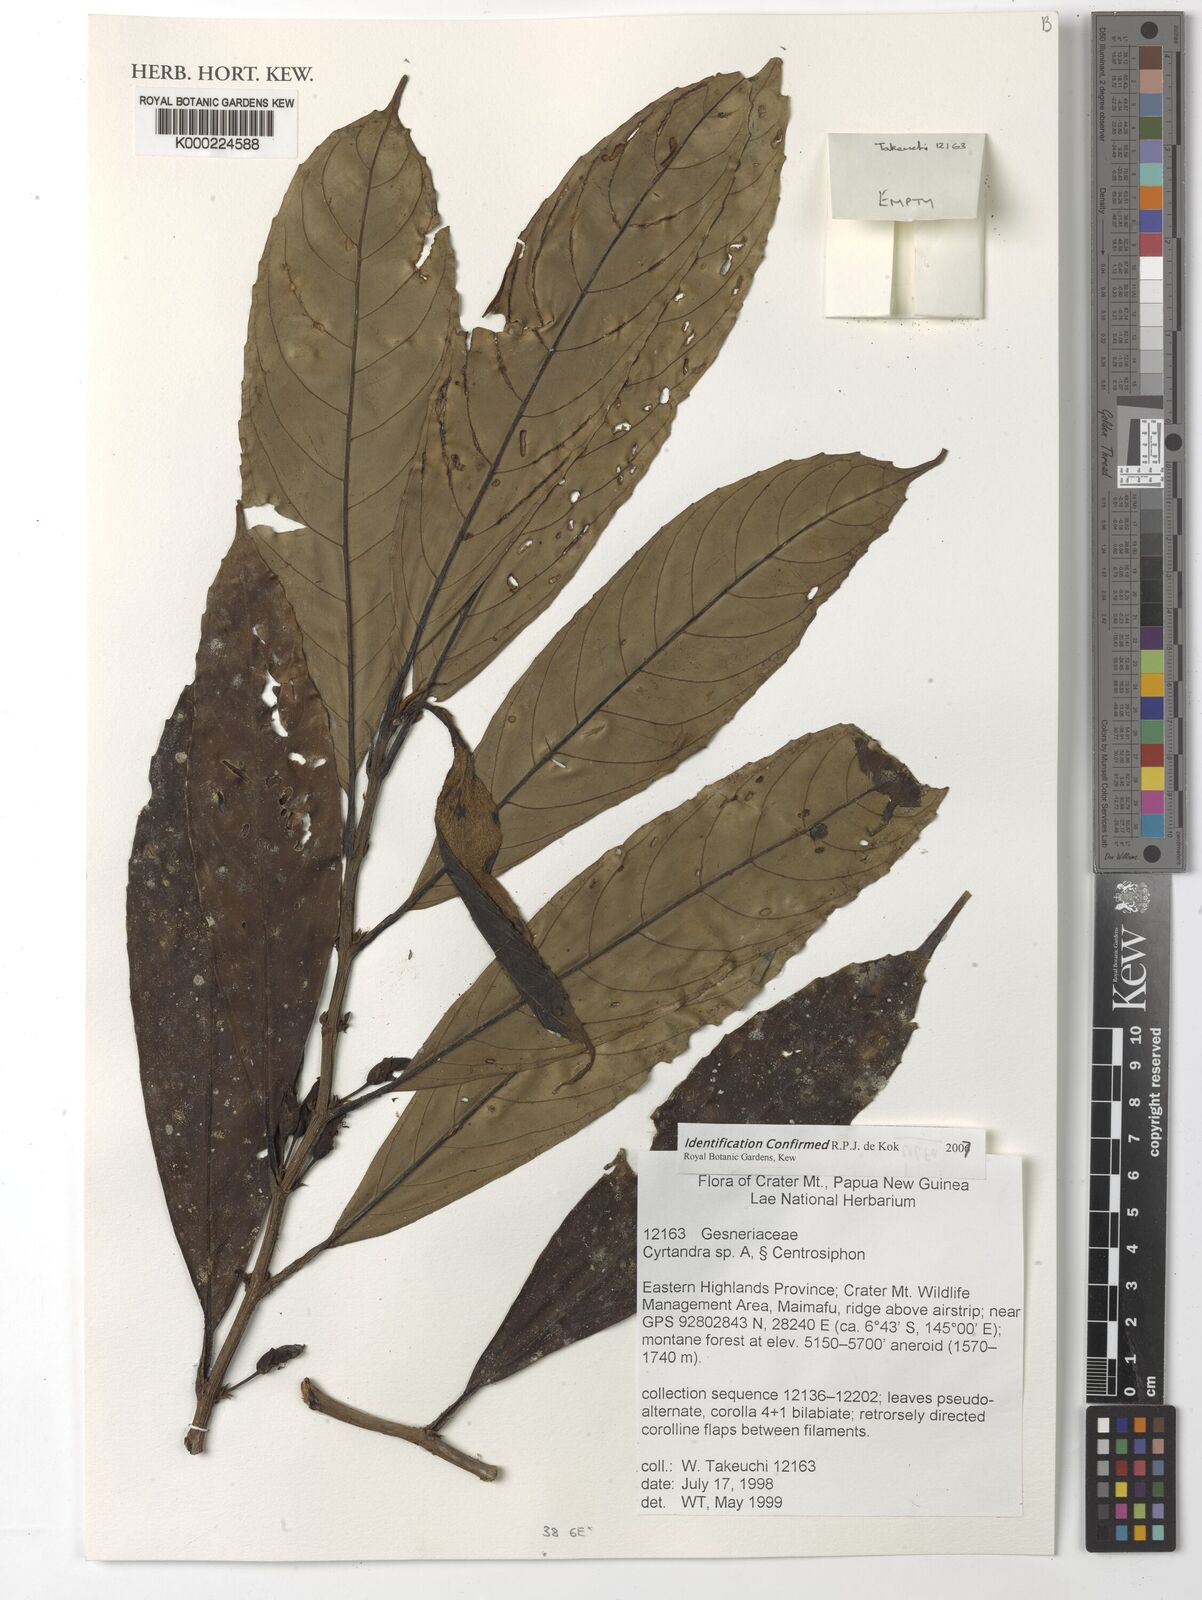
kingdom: Plantae
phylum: Tracheophyta
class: Magnoliopsida
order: Lamiales
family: Gesneriaceae
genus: Cyrtandra
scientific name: Cyrtandra
